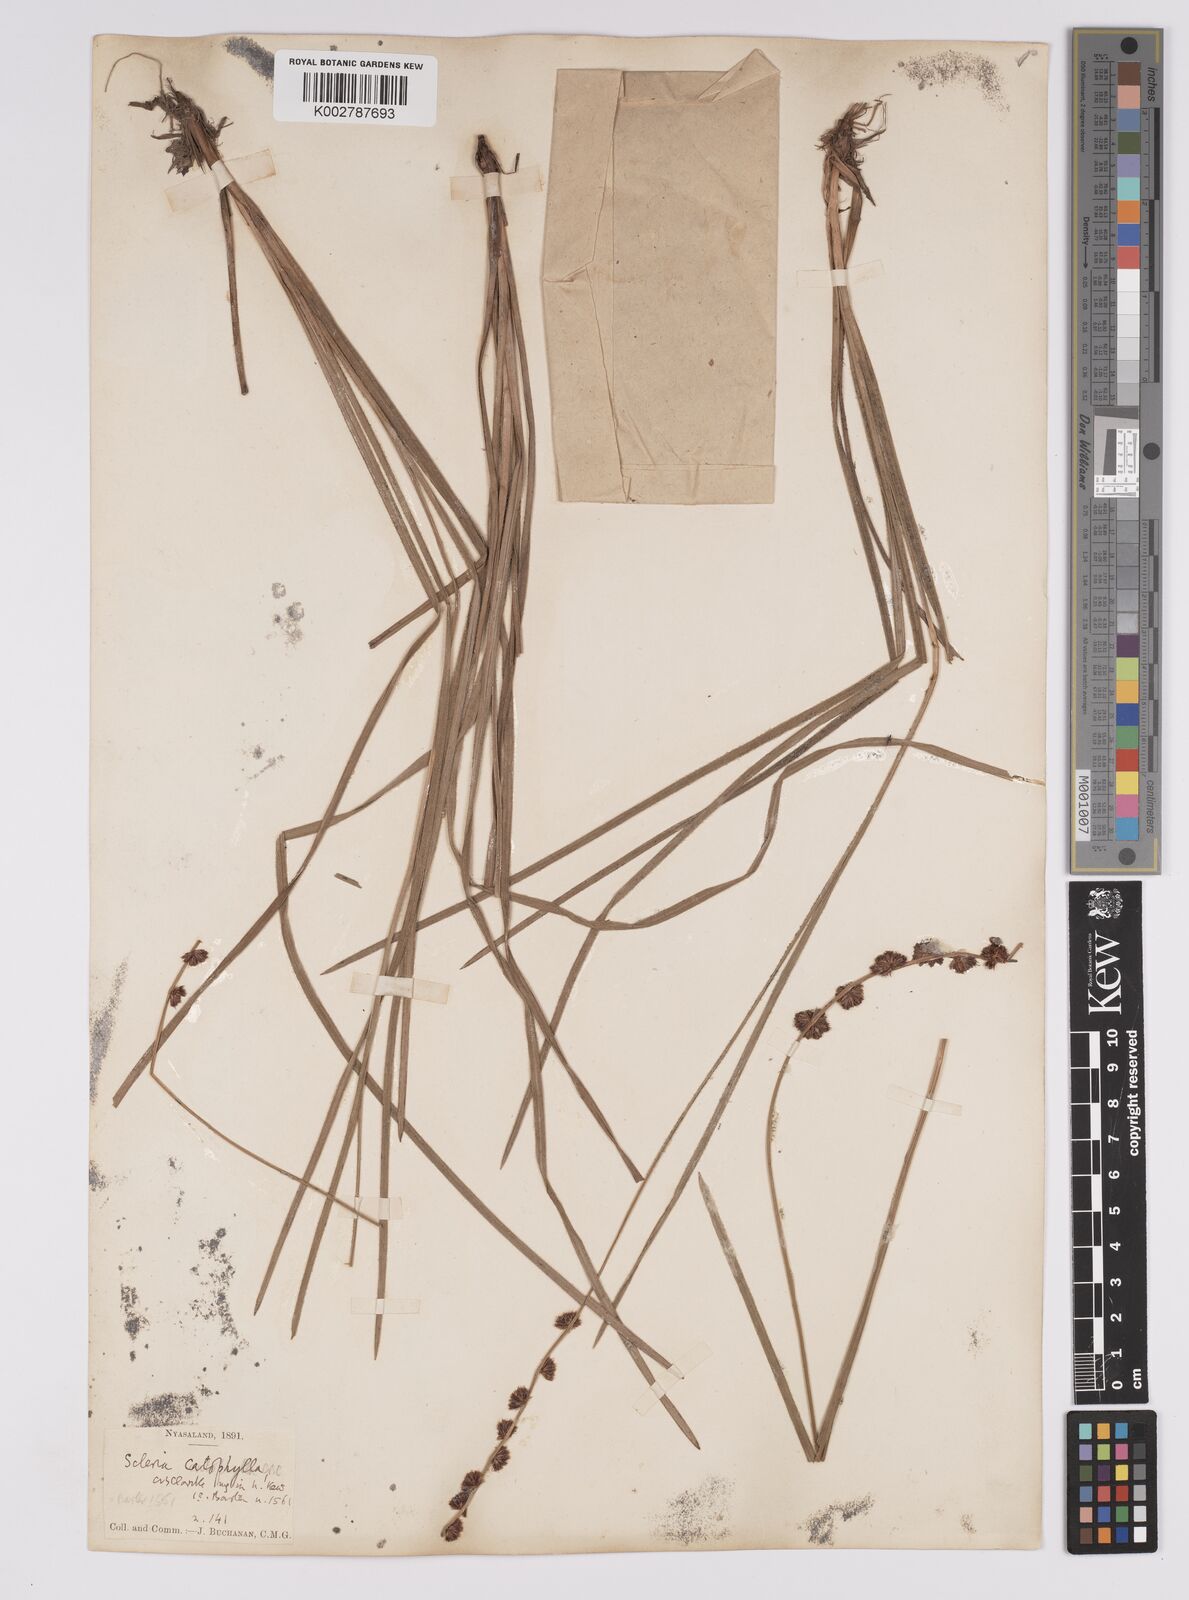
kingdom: Plantae
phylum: Tracheophyta
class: Liliopsida
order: Poales
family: Cyperaceae
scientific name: Cyperaceae
